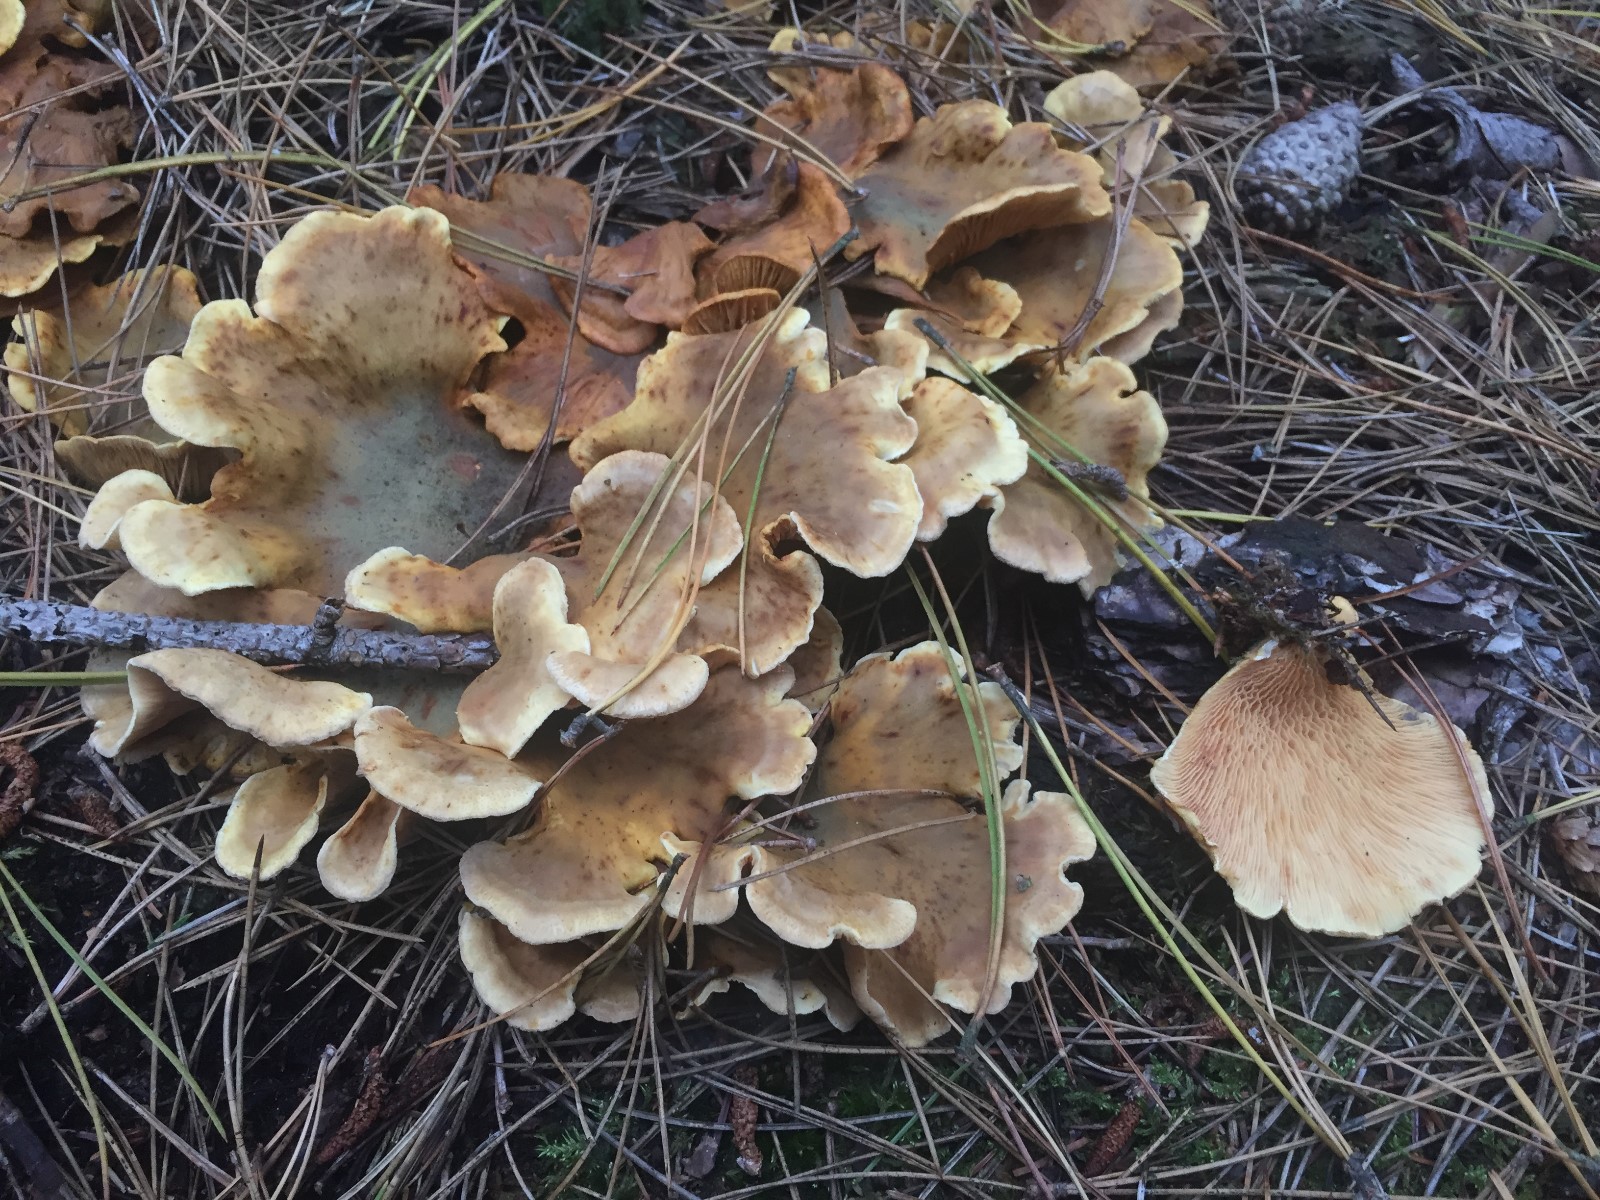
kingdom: Fungi
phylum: Basidiomycota
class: Agaricomycetes
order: Boletales
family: Tapinellaceae
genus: Tapinella
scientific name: Tapinella panuoides
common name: tømmer-viftesvamp
